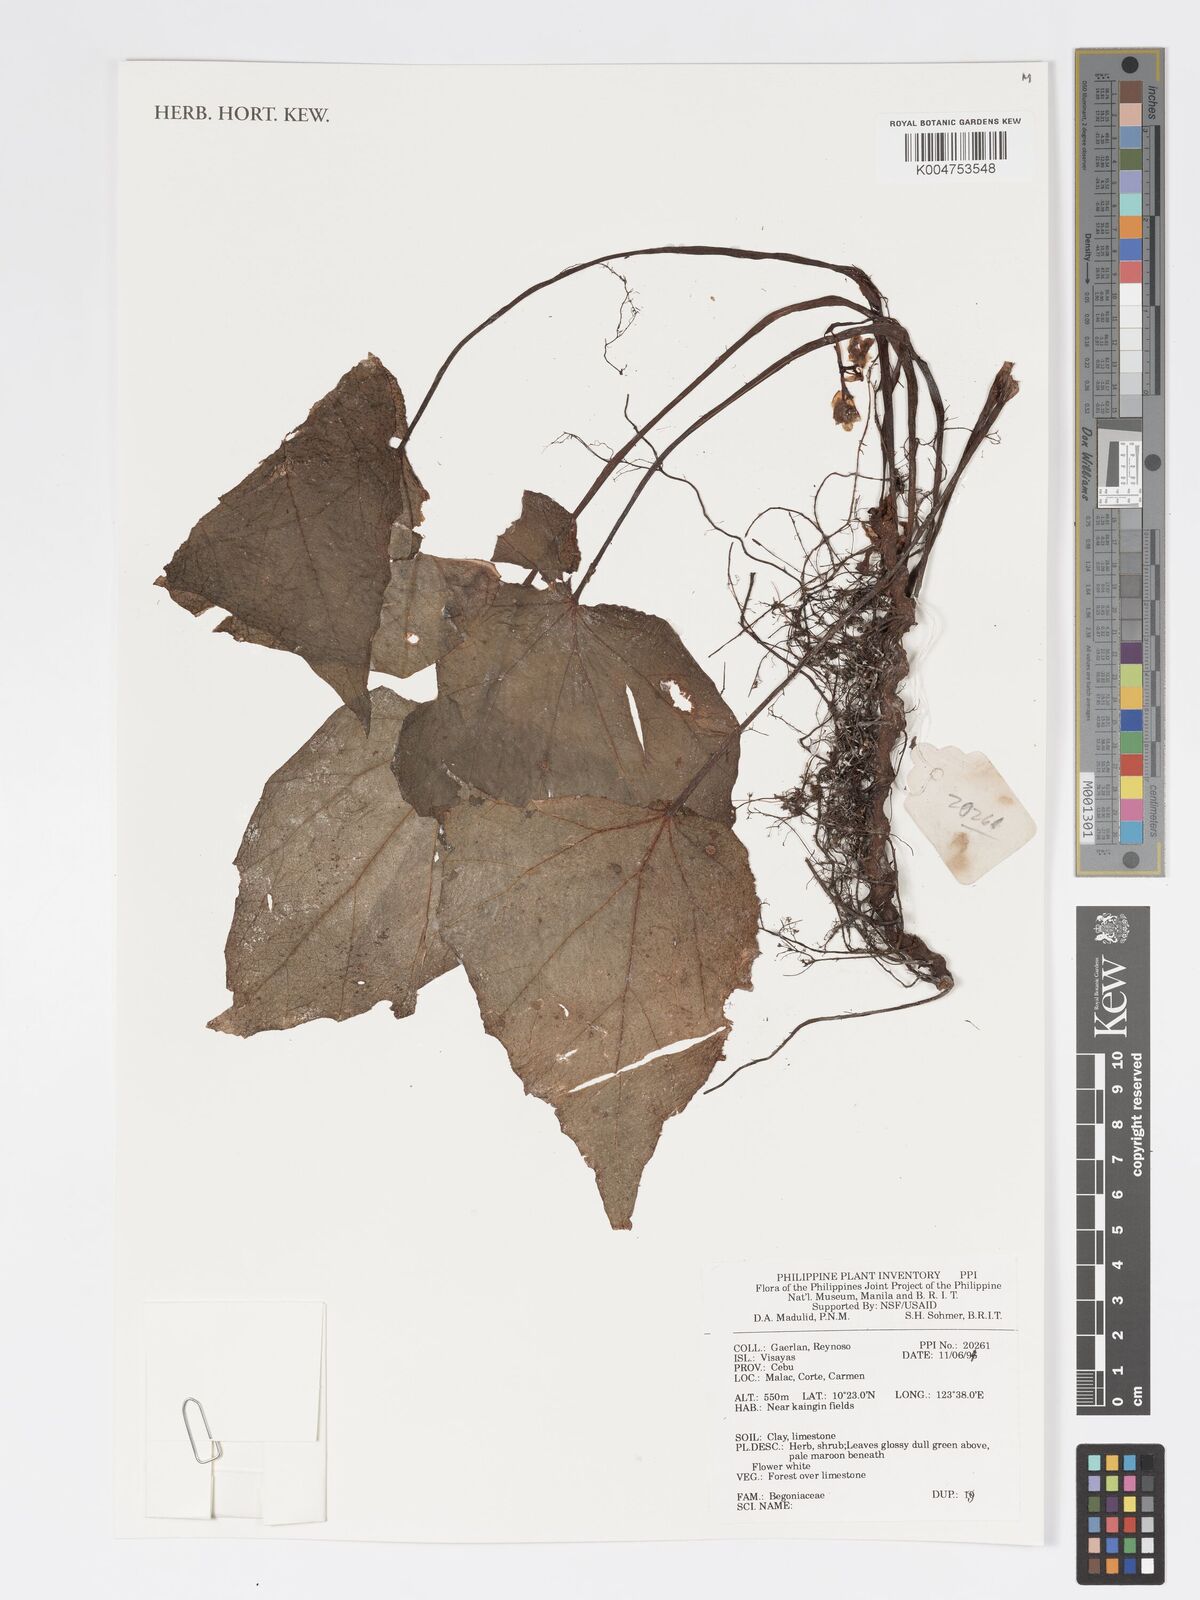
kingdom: Plantae
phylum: Tracheophyta
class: Magnoliopsida
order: Cucurbitales
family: Begoniaceae
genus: Begonia
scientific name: Begonia
